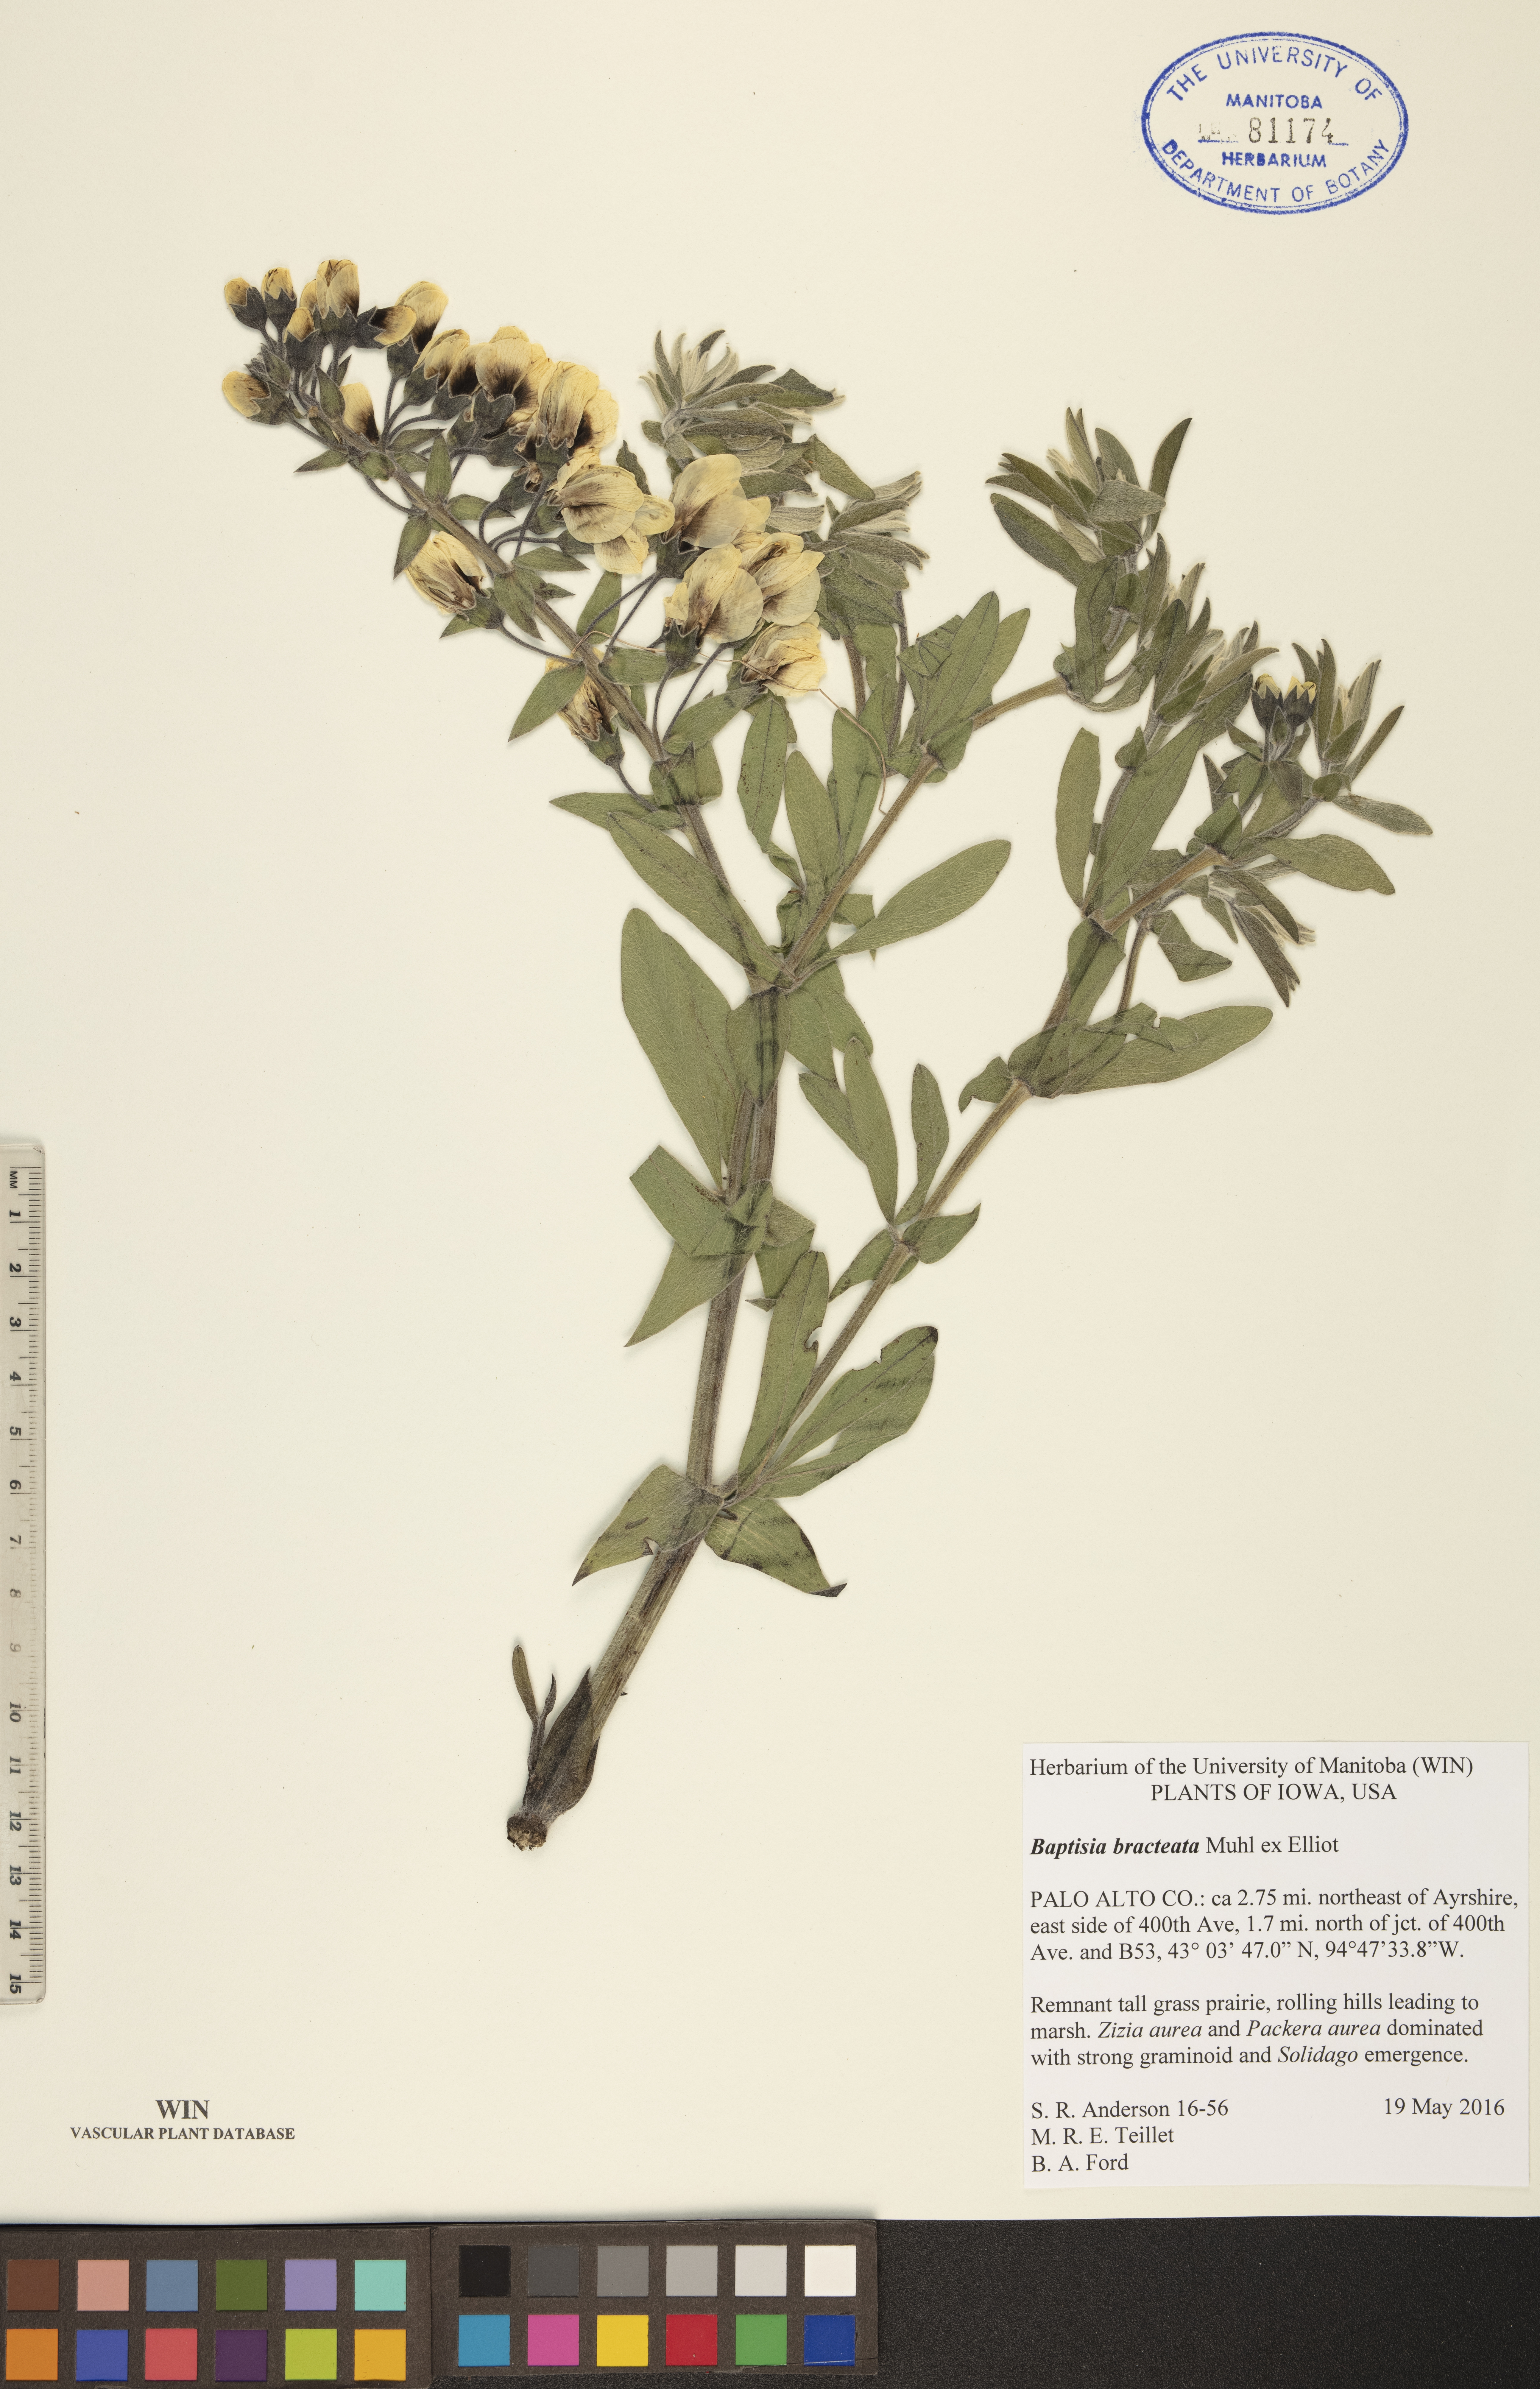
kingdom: Plantae
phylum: Tracheophyta
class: Magnoliopsida
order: Fabales
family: Fabaceae
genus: Baptisia
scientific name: Baptisia bracteata
